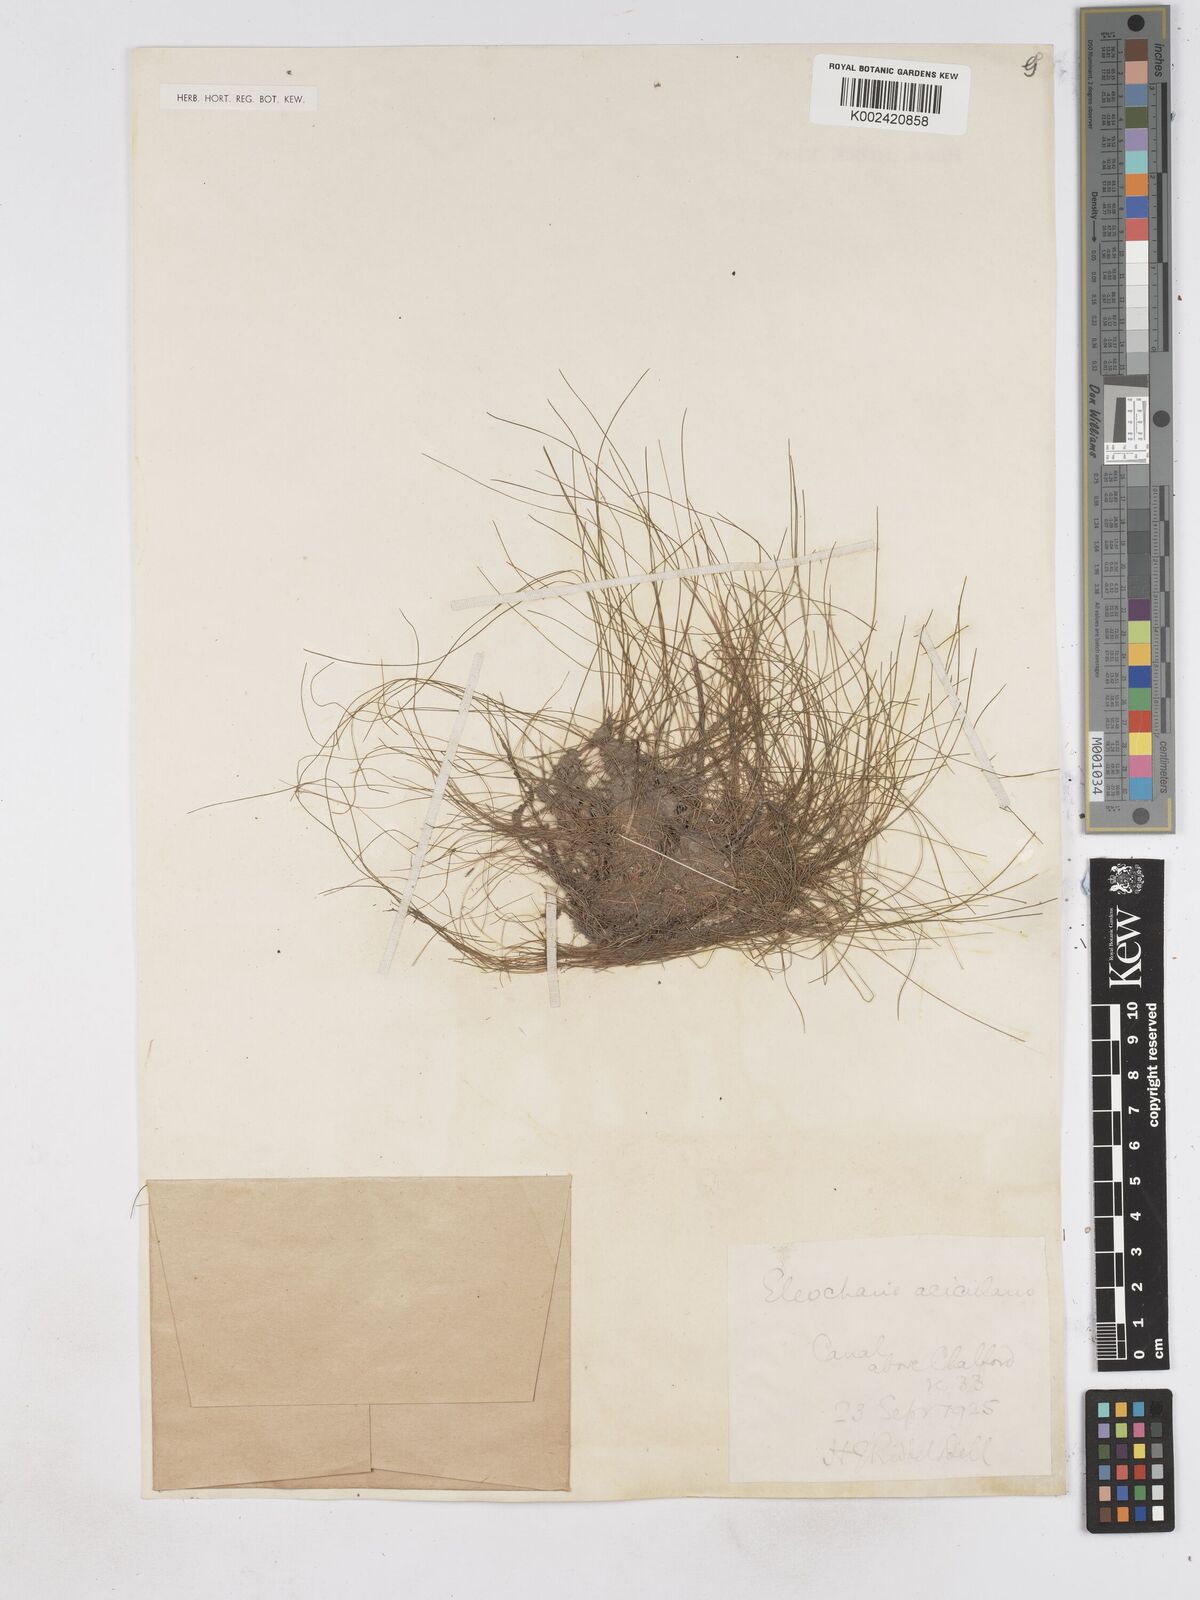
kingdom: Plantae
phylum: Tracheophyta
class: Liliopsida
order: Poales
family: Cyperaceae
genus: Eleocharis
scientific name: Eleocharis acicularis
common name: Needle spike-rush
